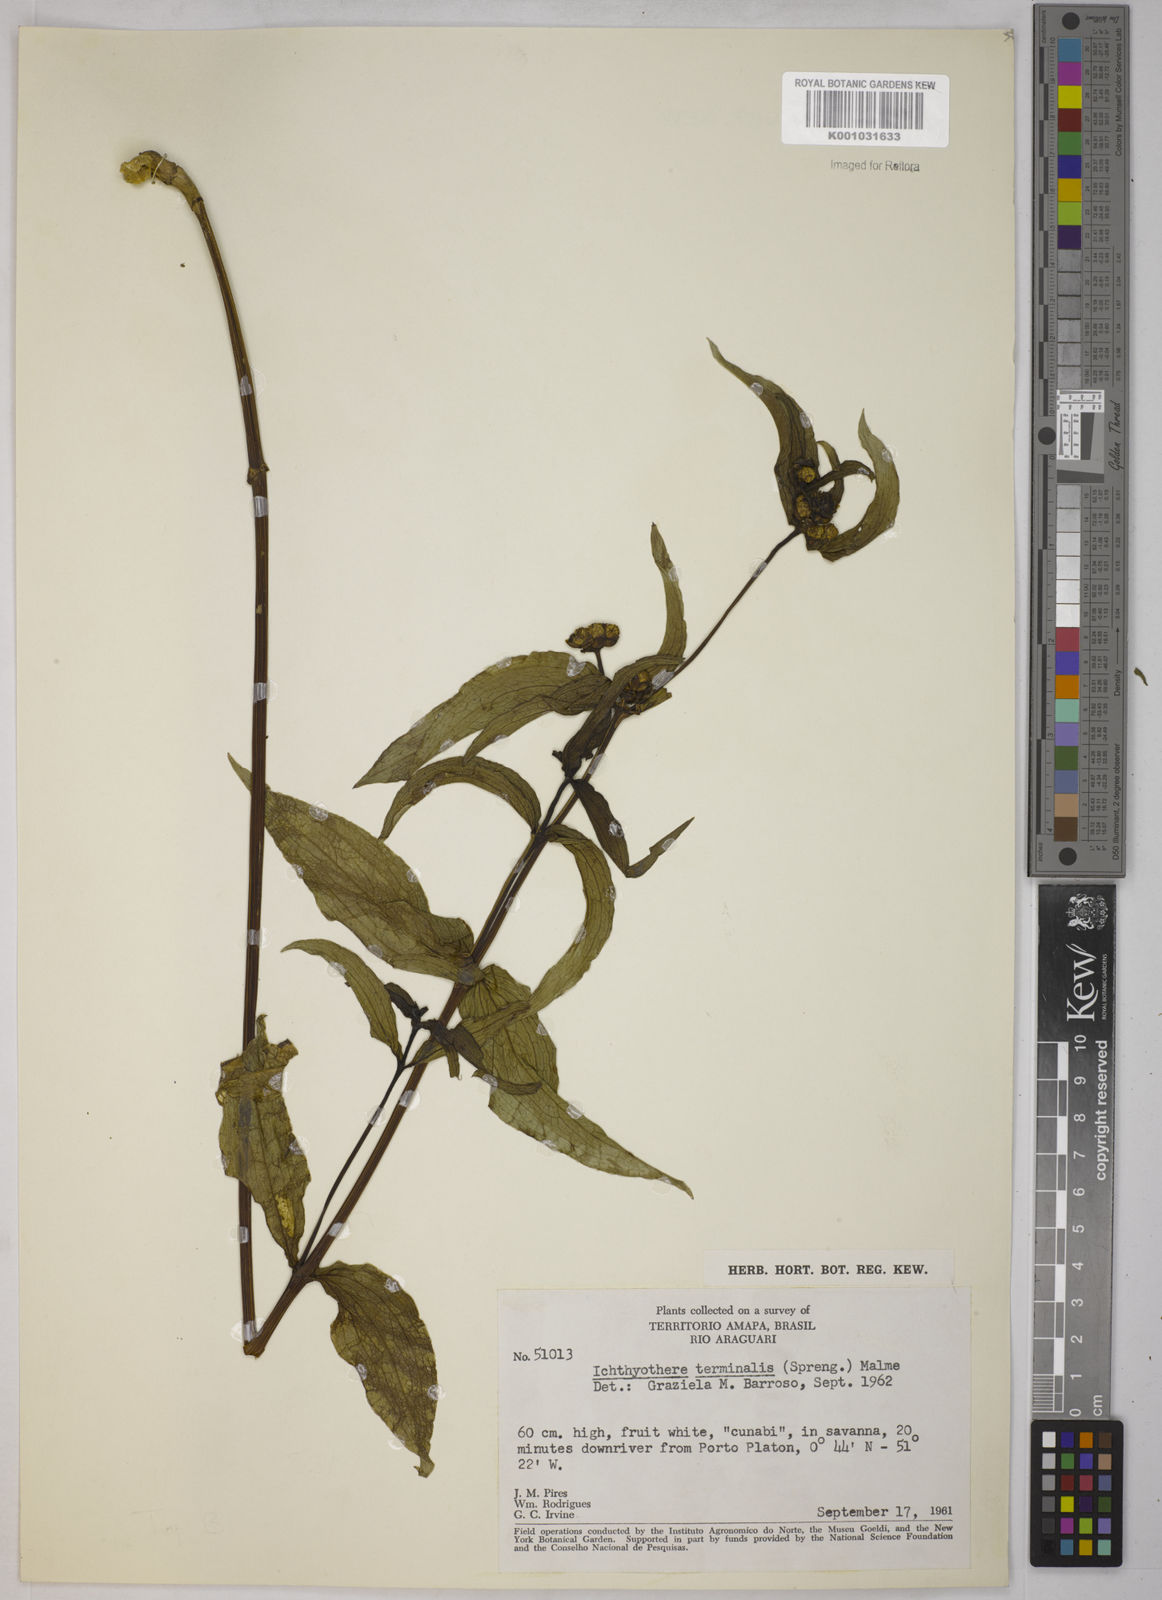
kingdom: Plantae
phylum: Tracheophyta
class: Magnoliopsida
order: Asterales
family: Asteraceae
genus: Ichthyothere
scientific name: Ichthyothere terminalis
